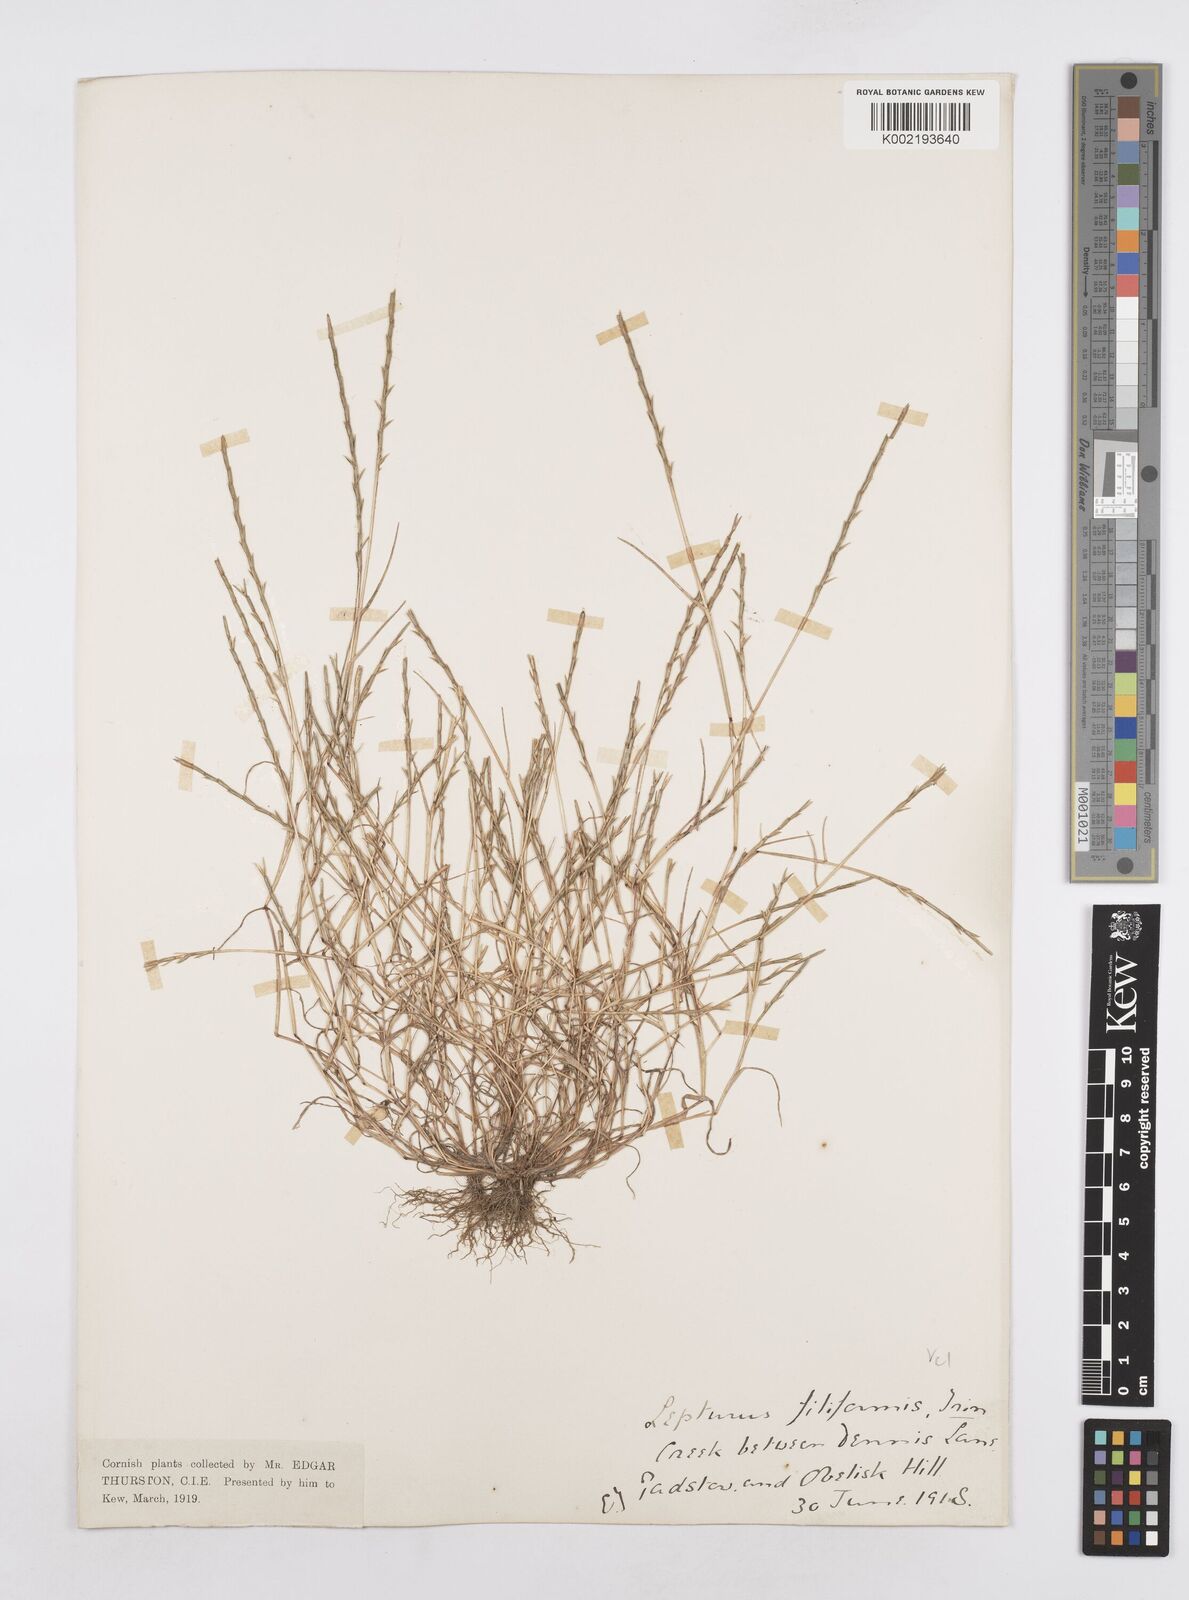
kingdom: Plantae
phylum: Tracheophyta
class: Liliopsida
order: Poales
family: Poaceae
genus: Parapholis
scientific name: Parapholis strigosa
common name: Hard-grass
